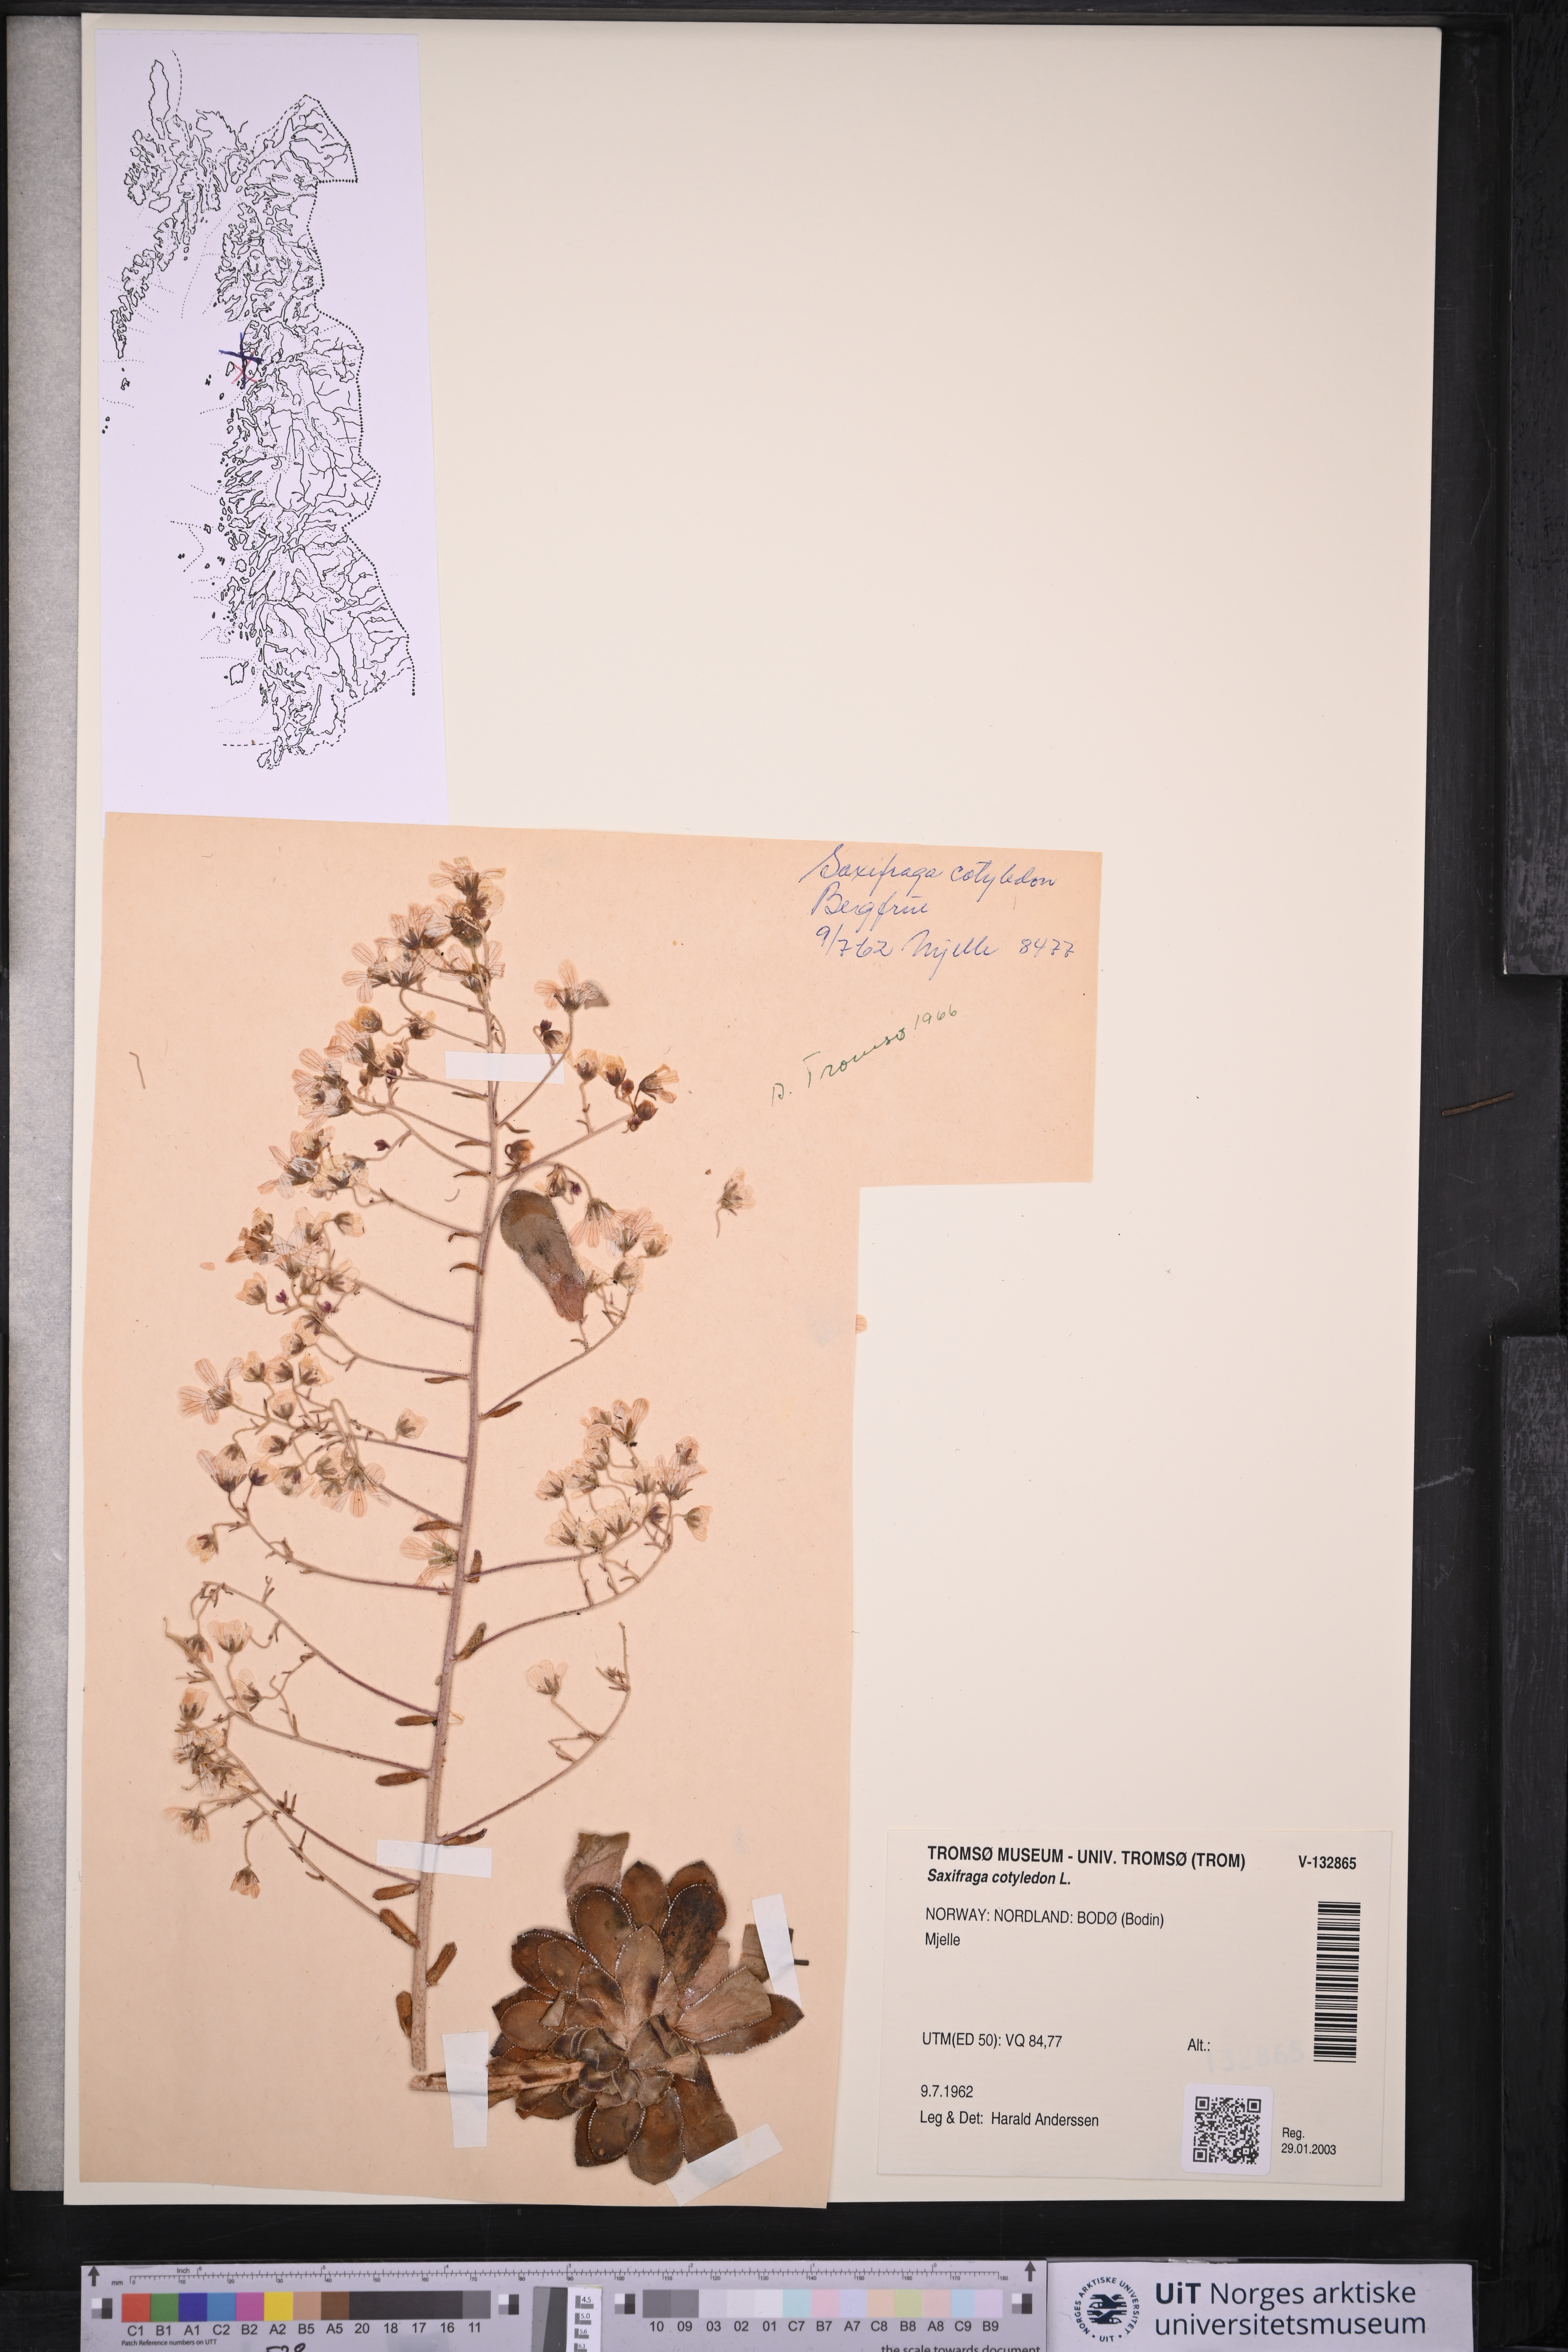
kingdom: Plantae
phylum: Tracheophyta
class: Magnoliopsida
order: Saxifragales
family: Saxifragaceae
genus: Saxifraga
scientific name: Saxifraga cotyledon
